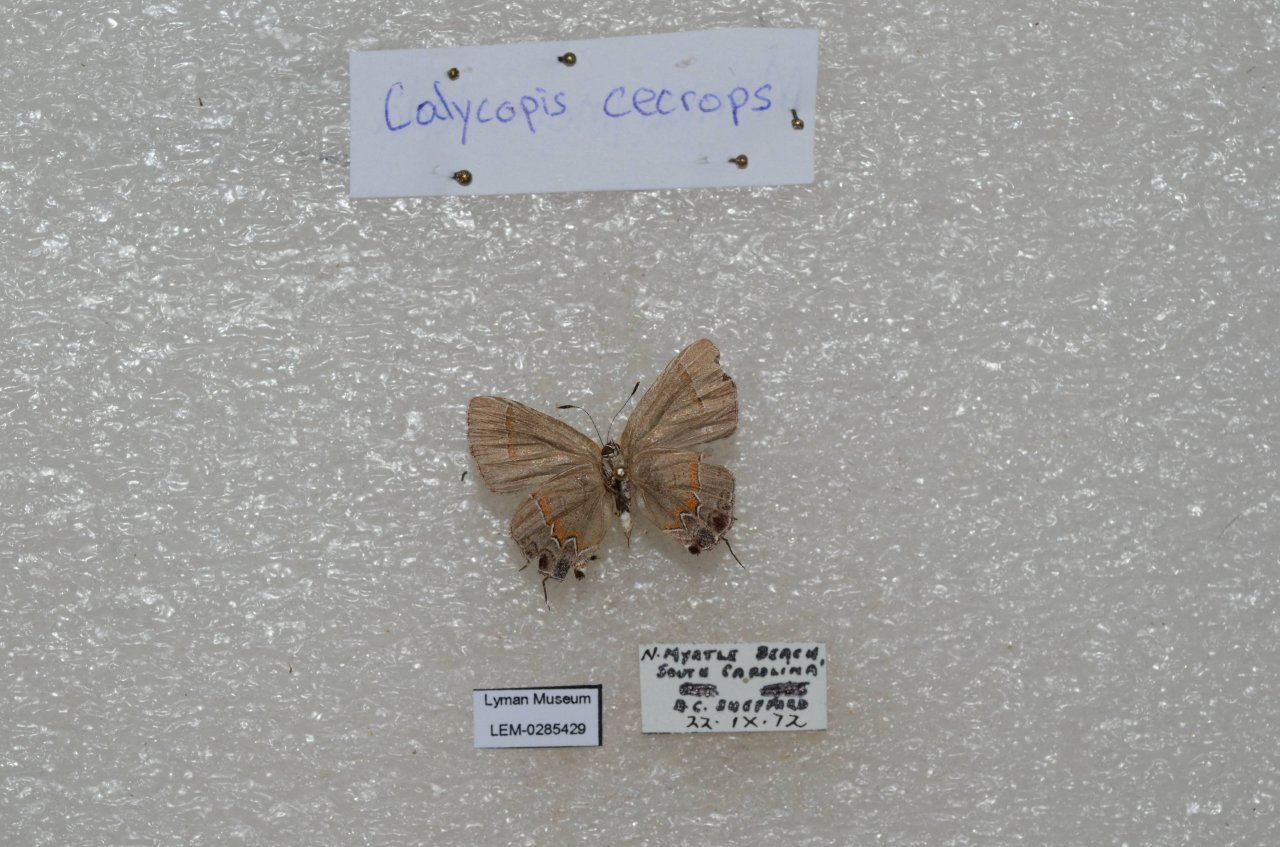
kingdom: Animalia
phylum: Arthropoda
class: Insecta
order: Lepidoptera
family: Lycaenidae
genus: Calycopis
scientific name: Calycopis cecrops
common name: Red-banded Hairstreak
